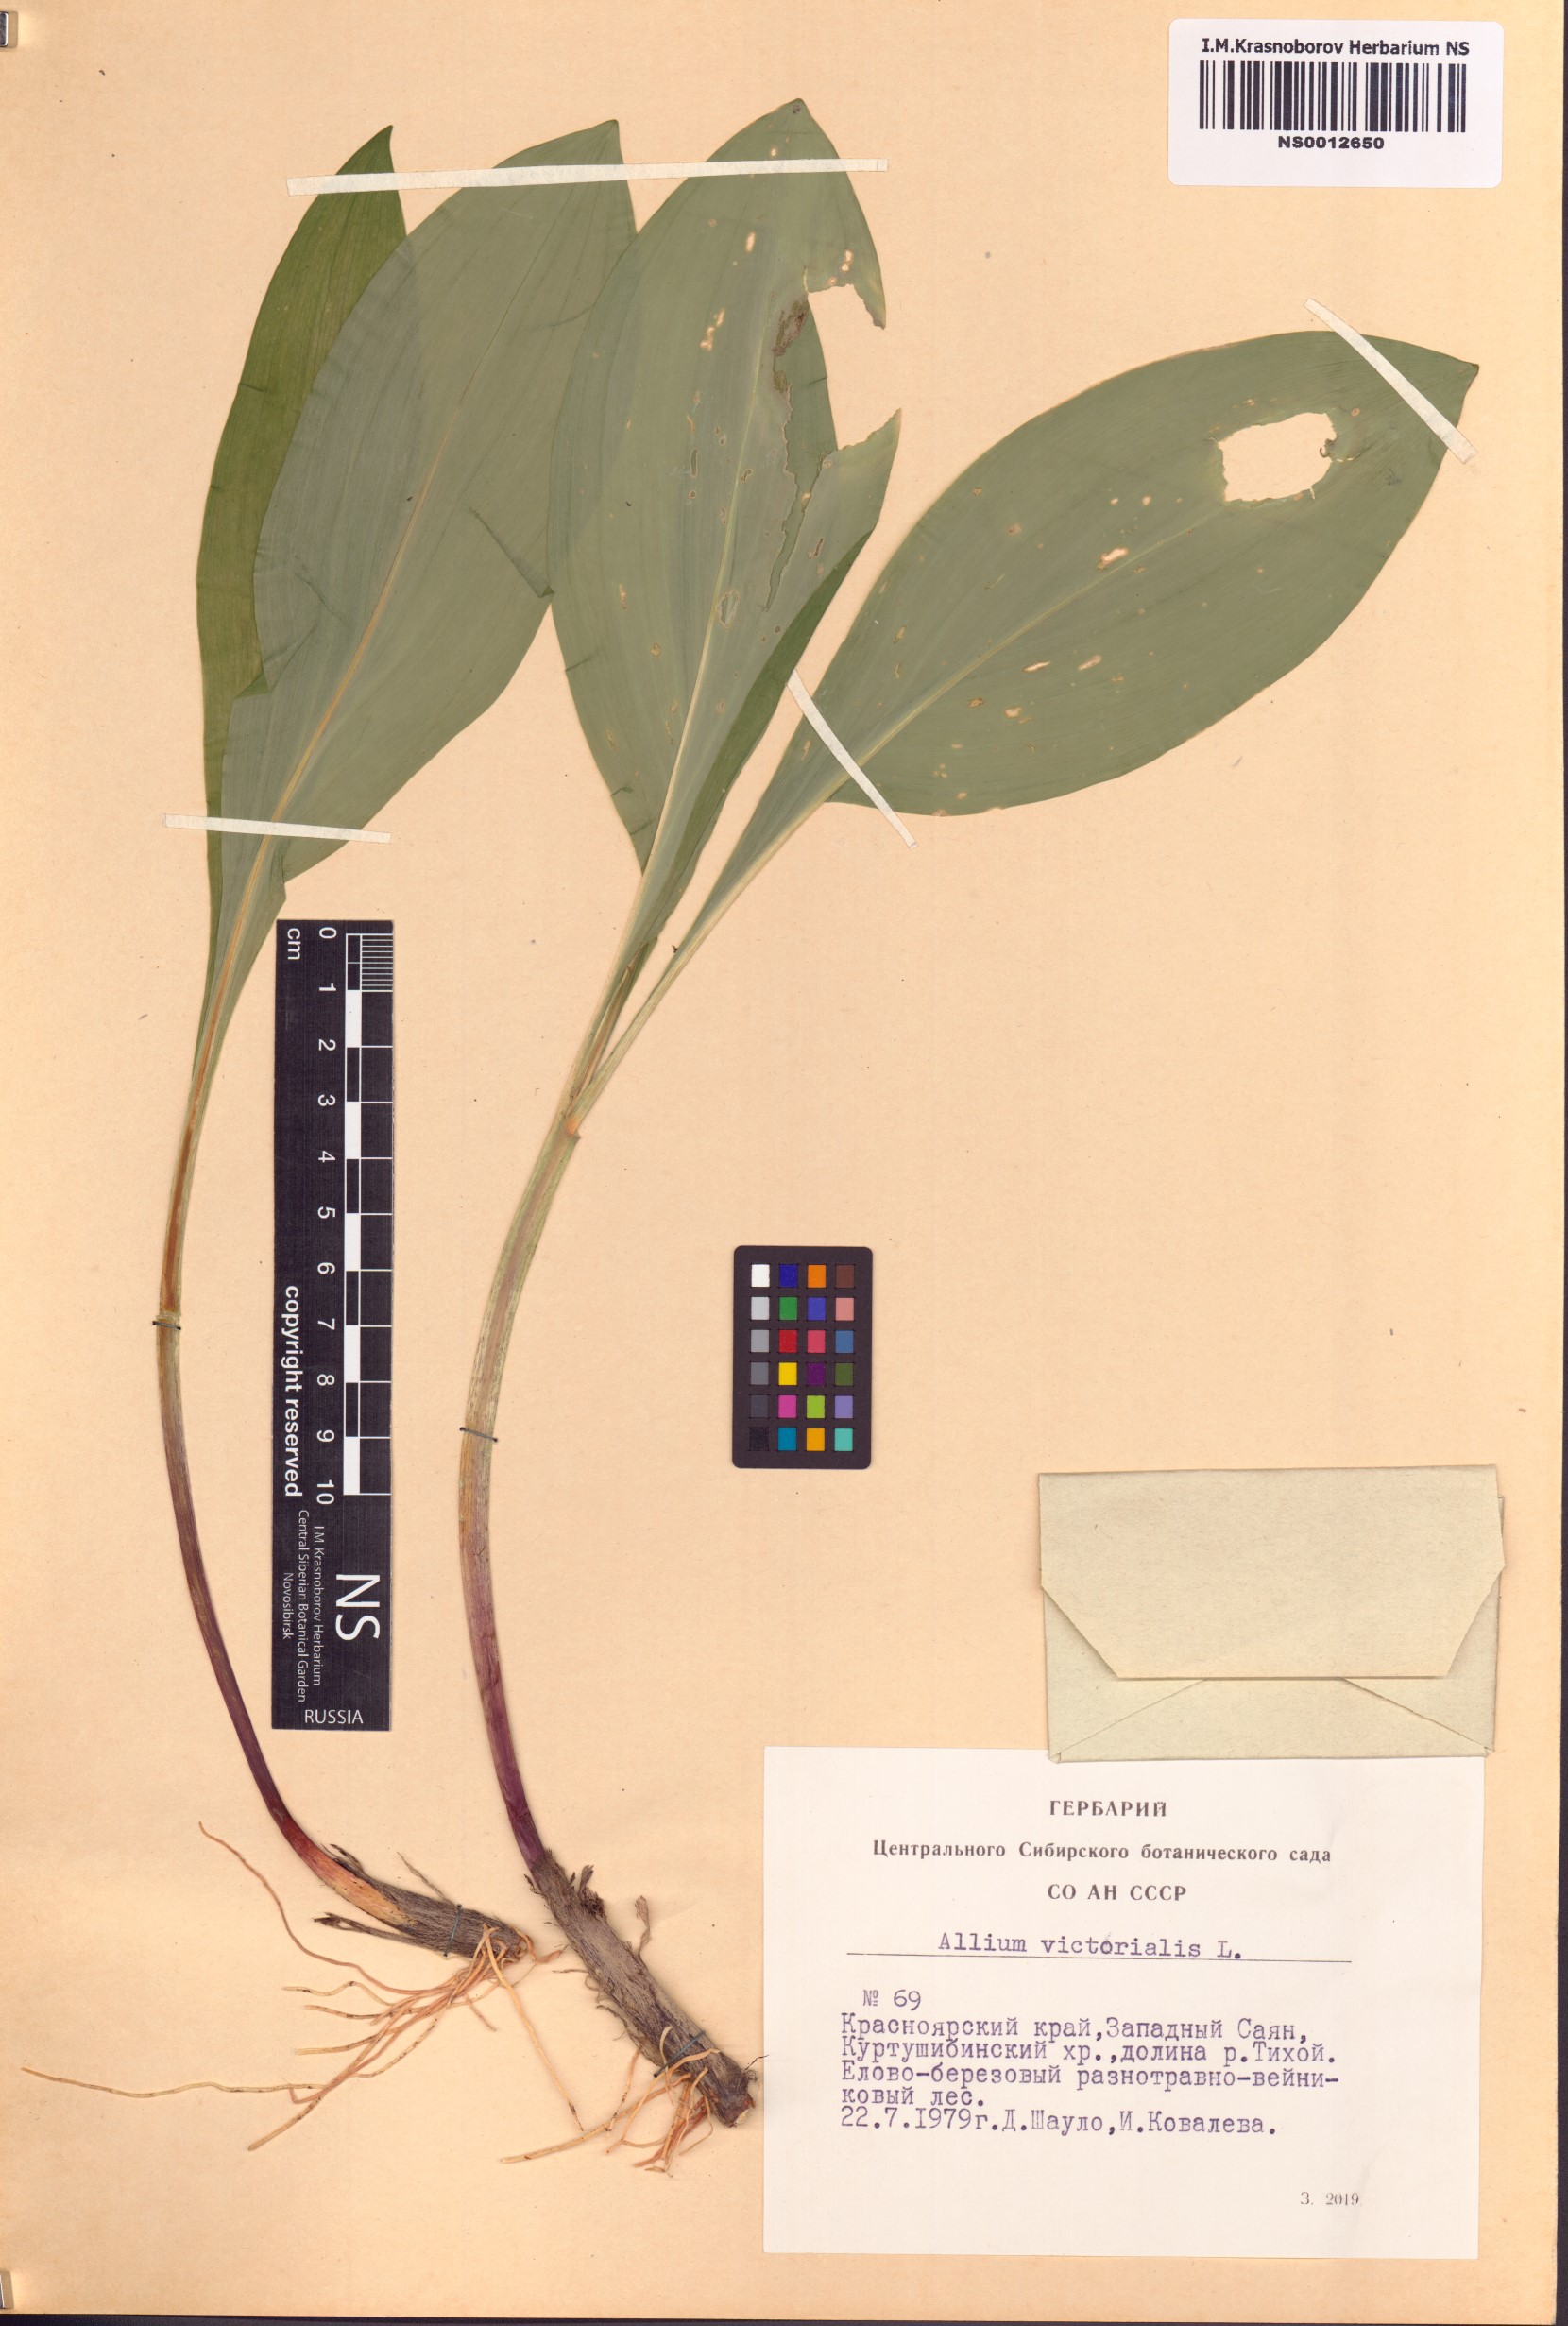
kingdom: Plantae
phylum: Tracheophyta
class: Liliopsida
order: Asparagales
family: Amaryllidaceae
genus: Allium
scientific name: Allium microdictyon
